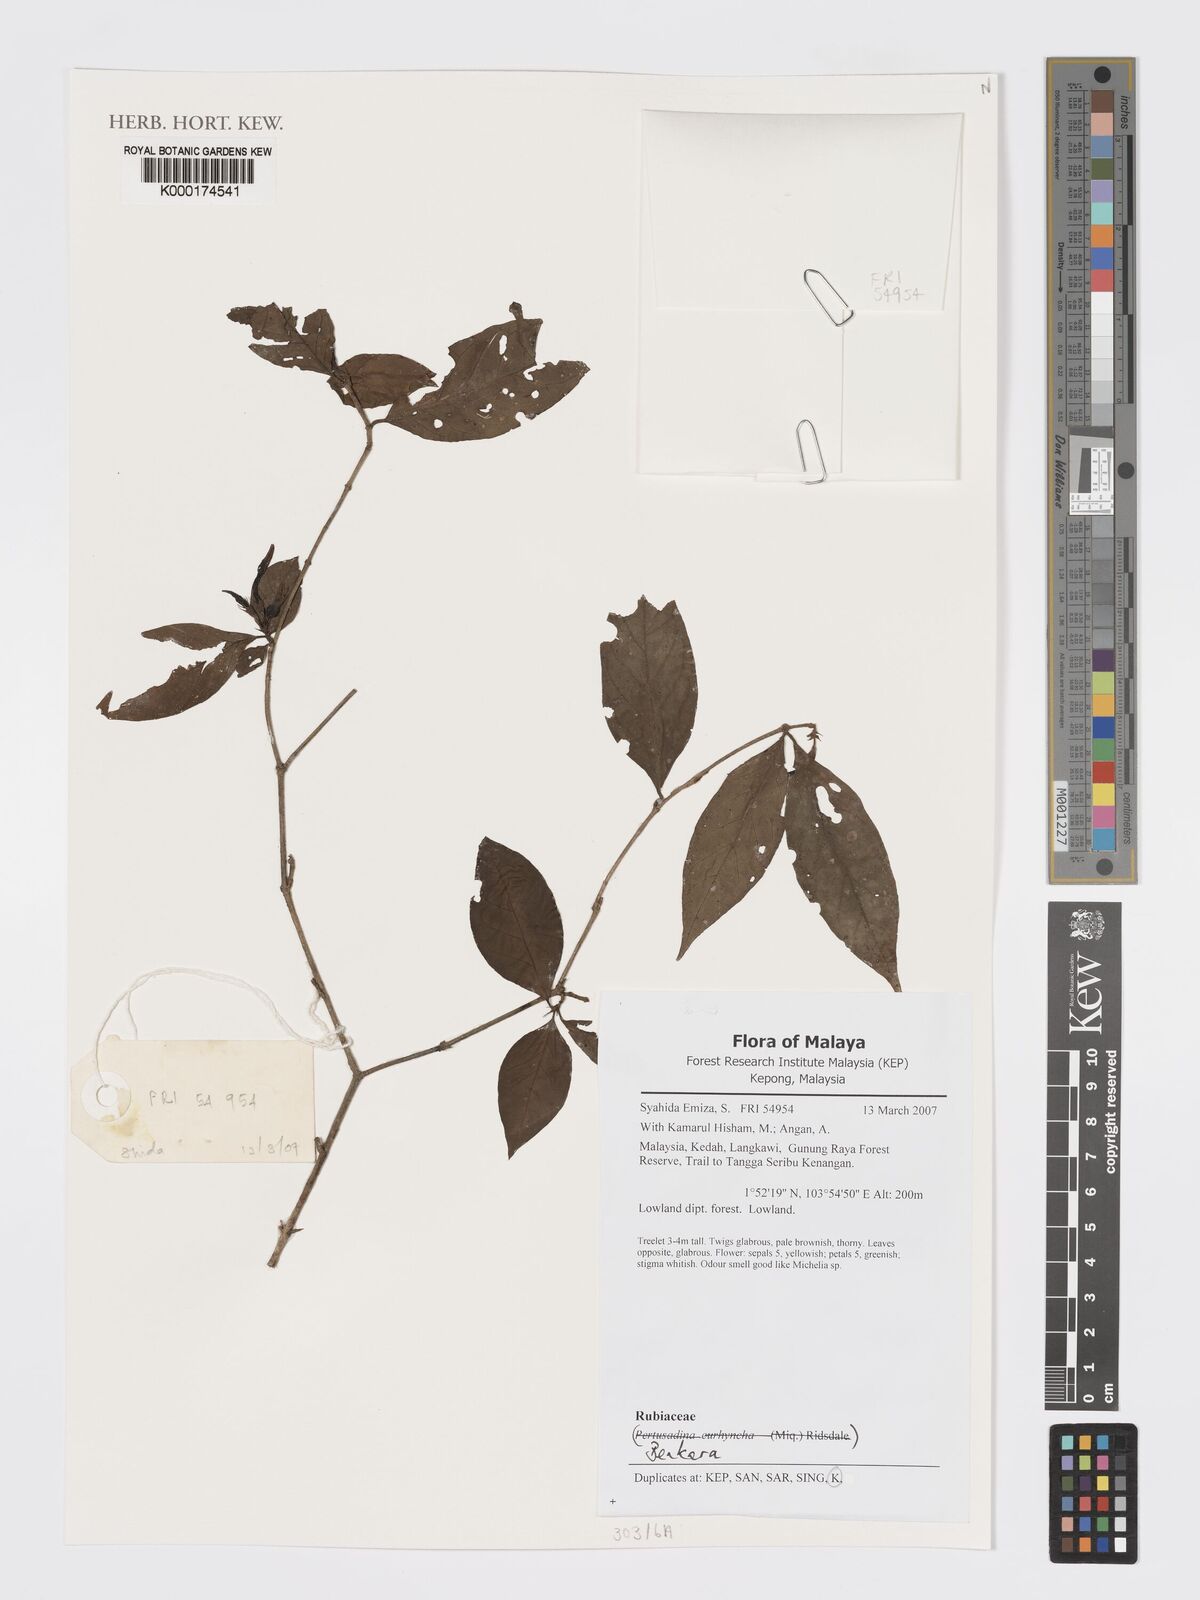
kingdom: Plantae
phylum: Tracheophyta
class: Magnoliopsida
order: Gentianales
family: Rubiaceae
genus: Benkara
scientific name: Benkara
